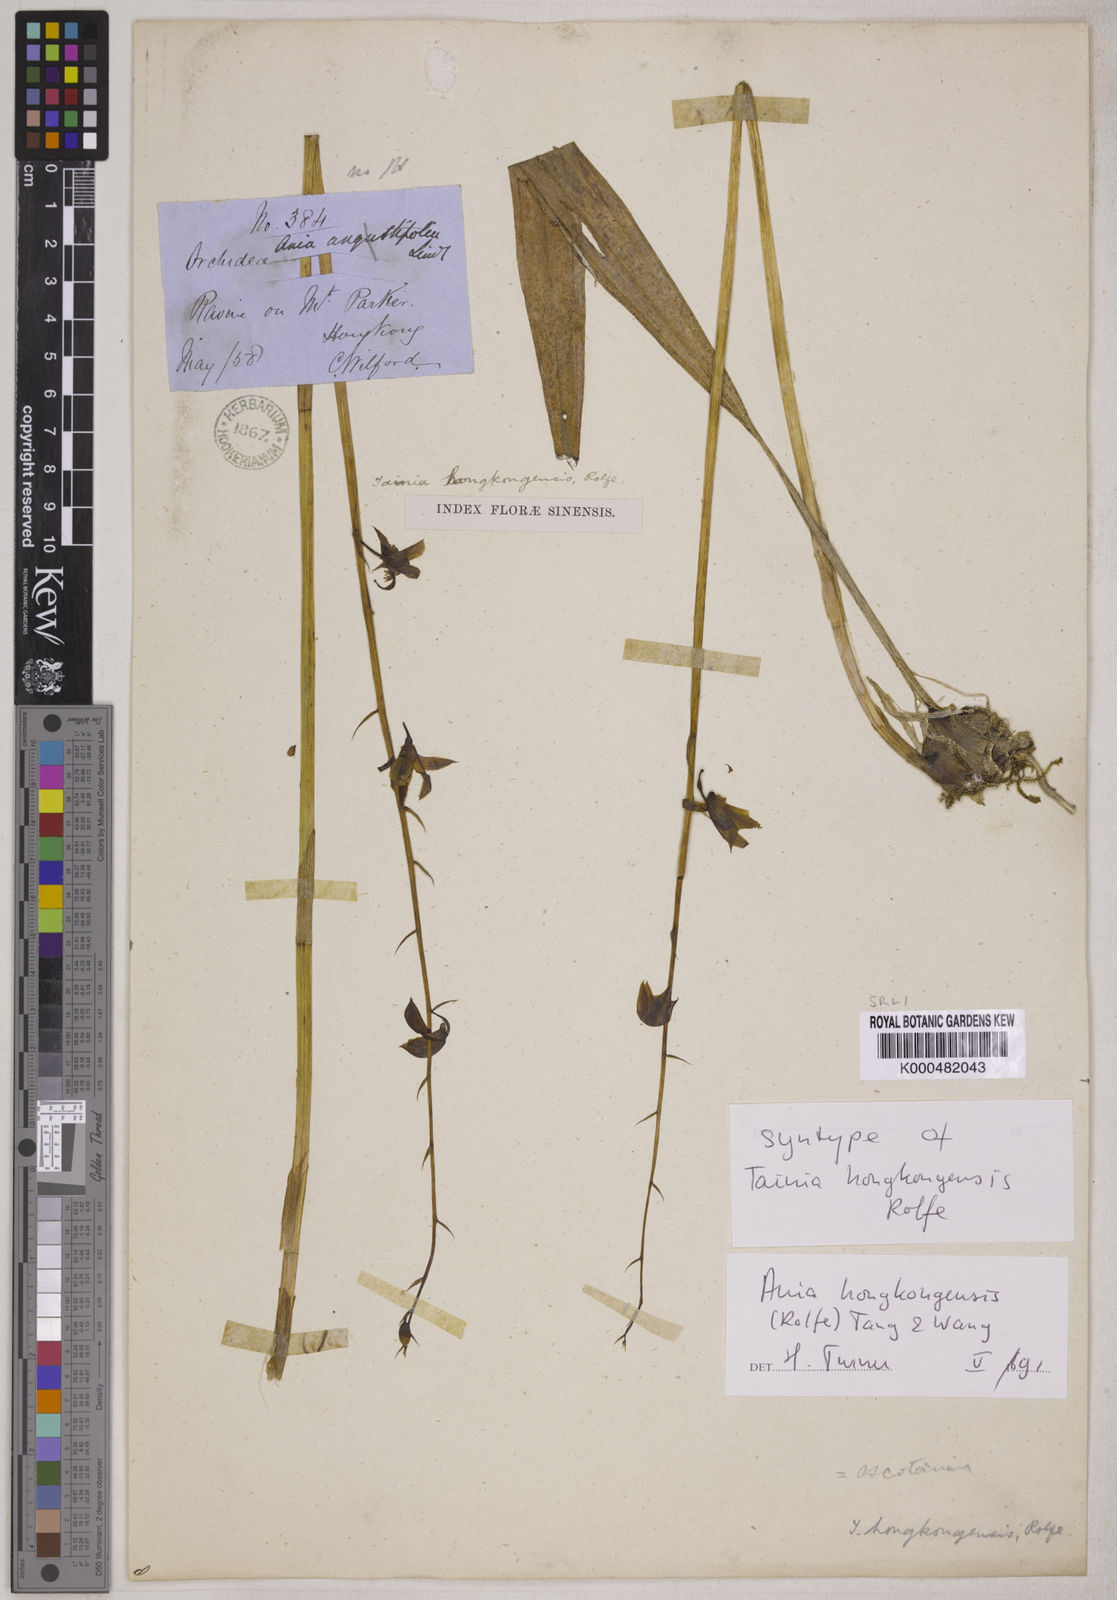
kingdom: Plantae
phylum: Tracheophyta
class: Liliopsida
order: Asparagales
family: Orchidaceae
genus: Ania
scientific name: Ania hongkongensis
